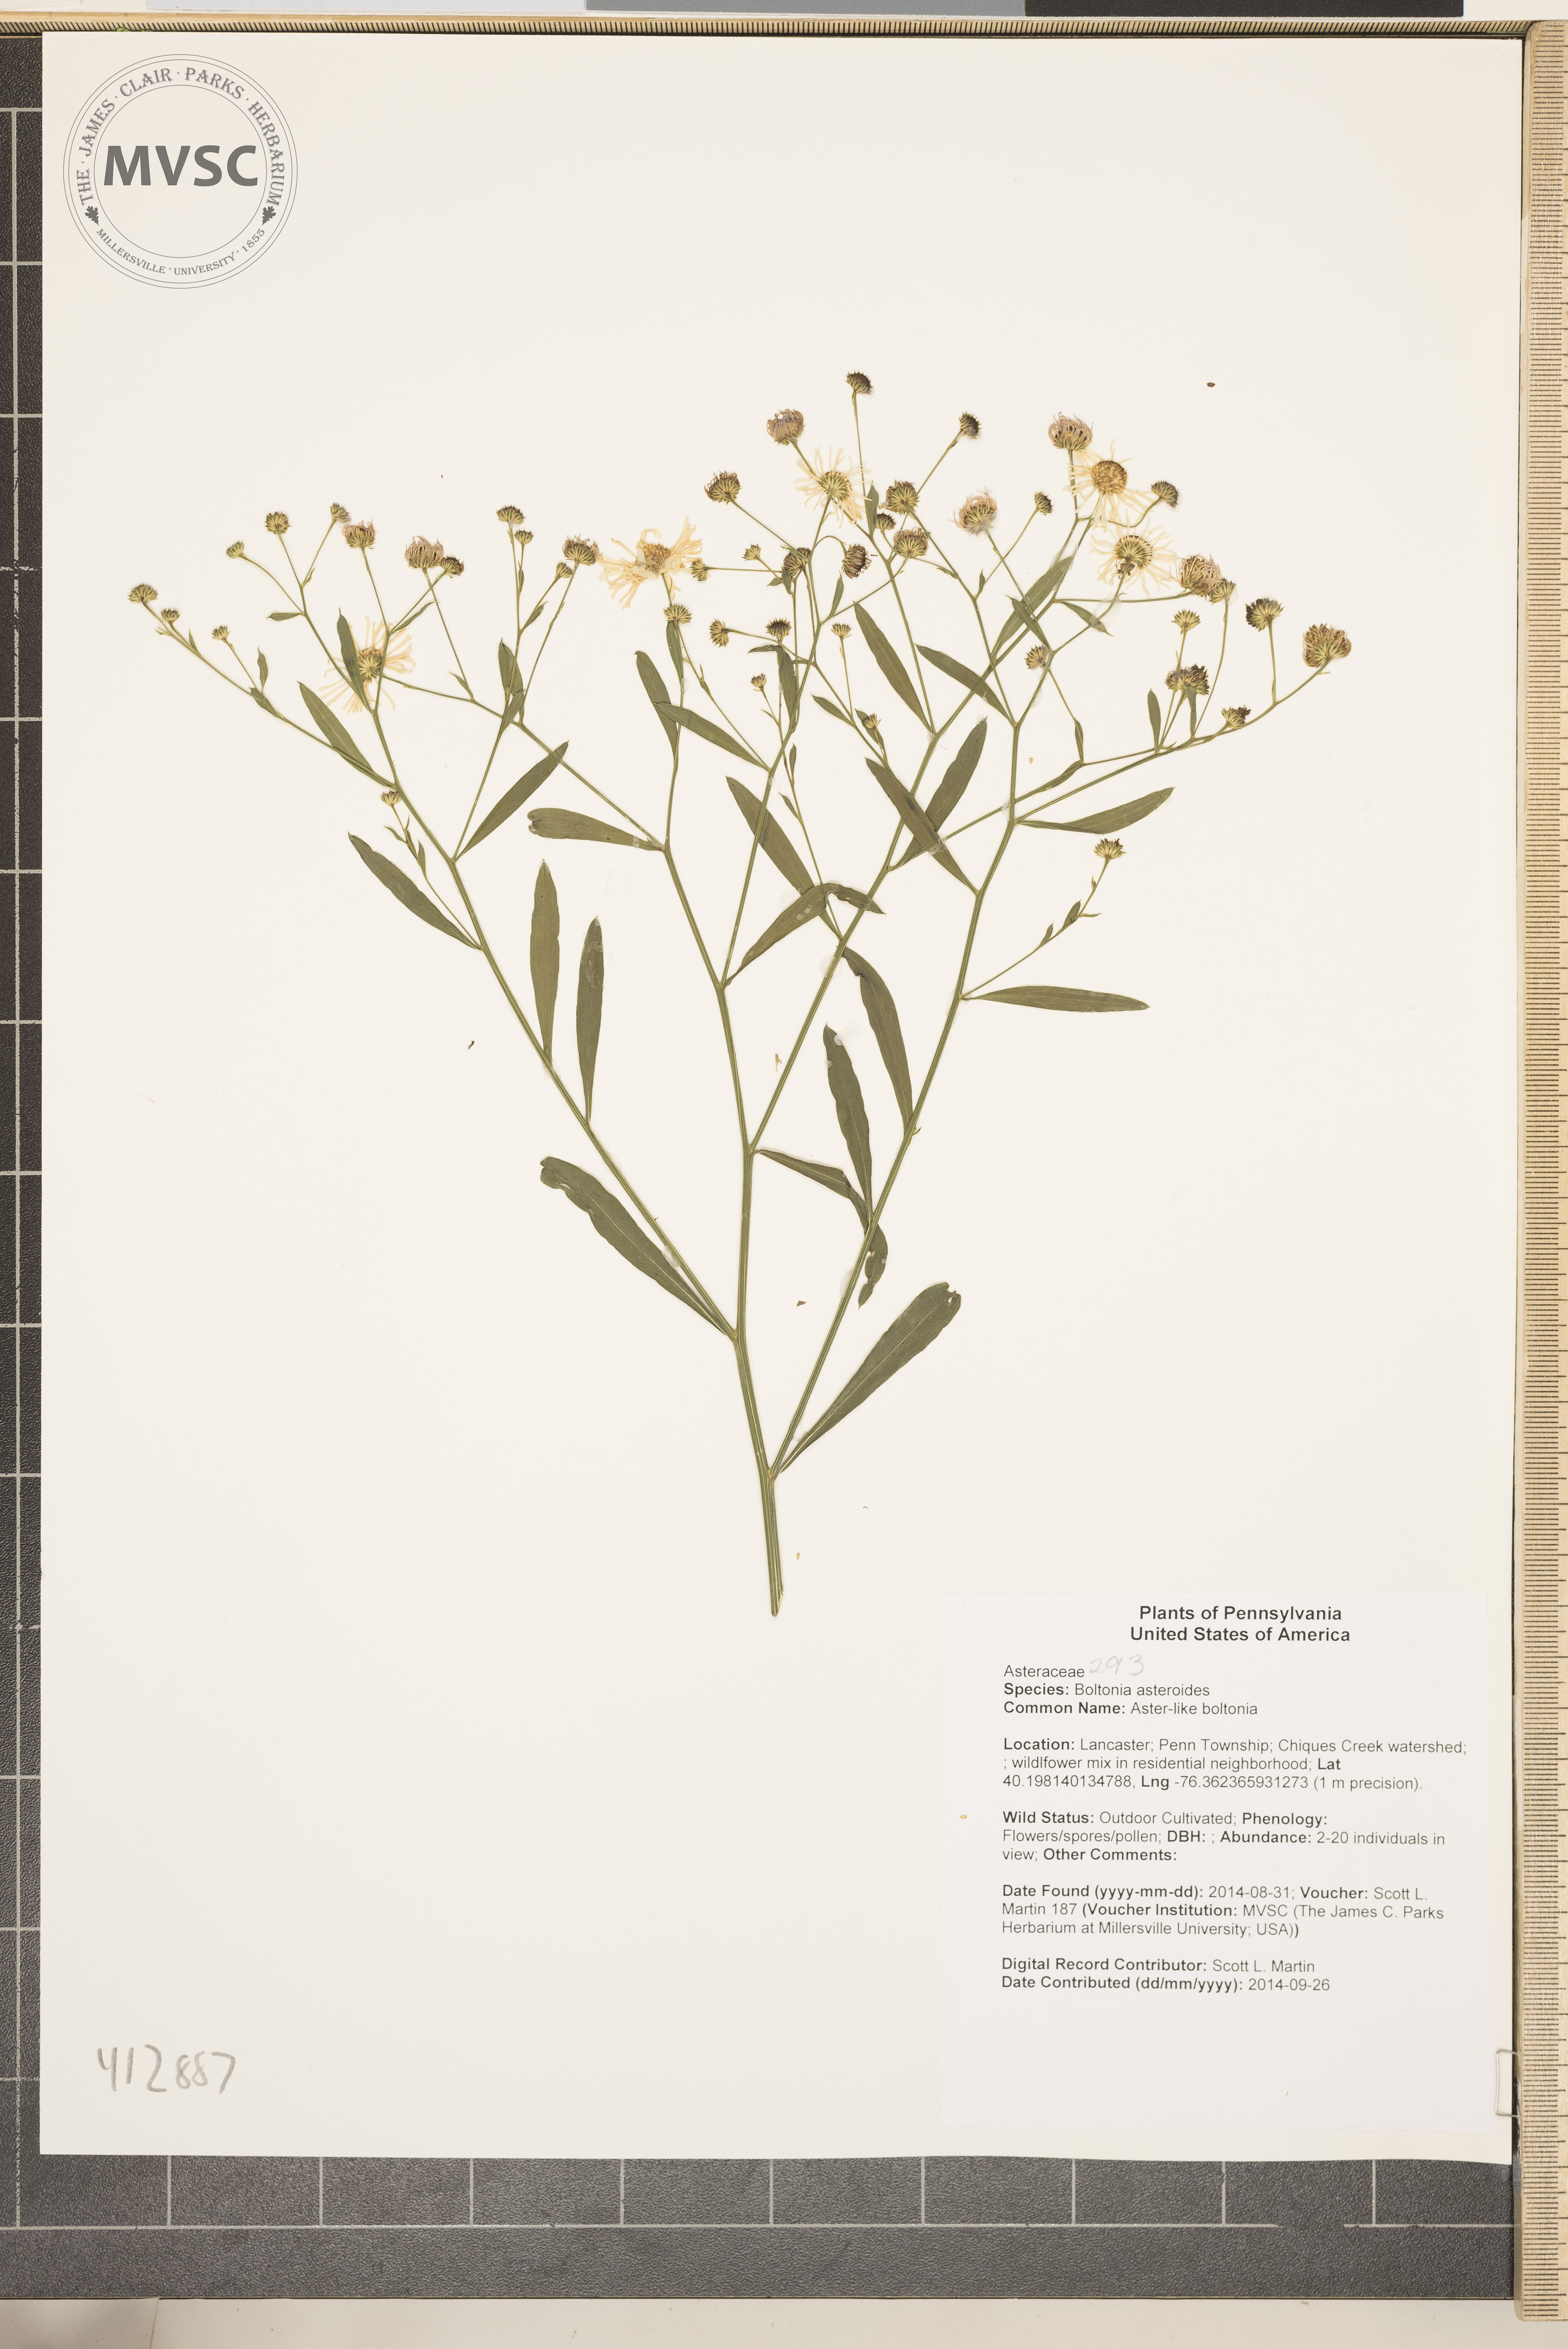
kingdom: Plantae
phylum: Tracheophyta
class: Magnoliopsida
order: Asterales
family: Asteraceae
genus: Boltonia
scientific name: Boltonia asteroides
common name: Aster-like boltonia
